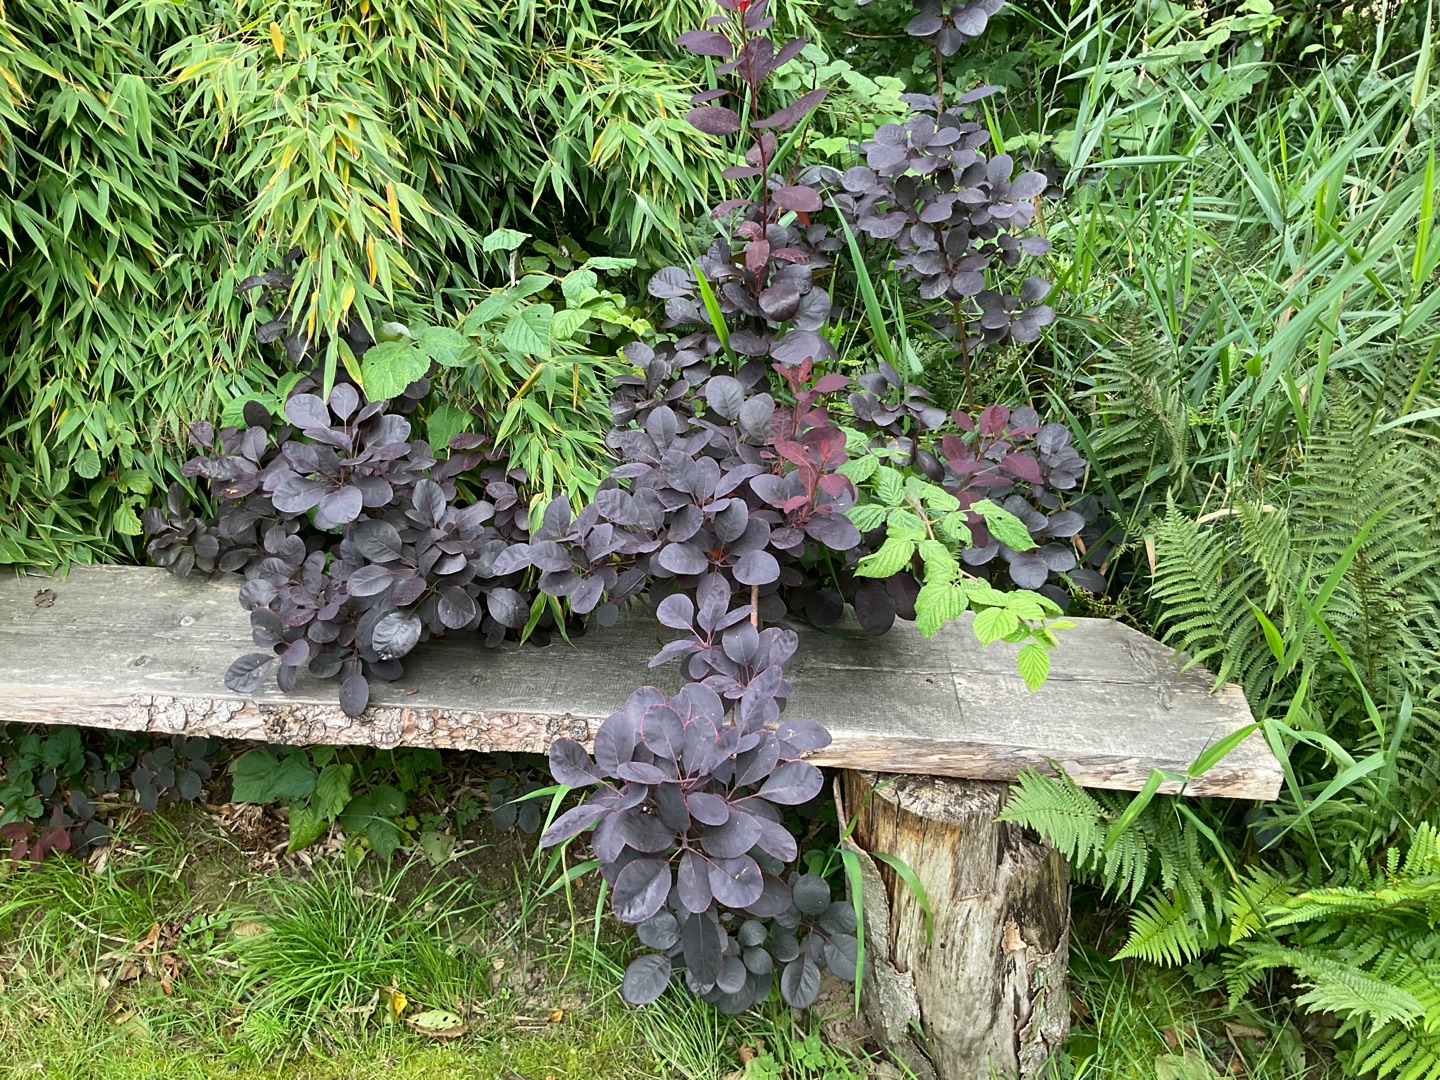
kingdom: Plantae
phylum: Tracheophyta
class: Magnoliopsida
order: Sapindales
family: Anacardiaceae
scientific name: Anacardiaceae
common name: Sumakfamilien
